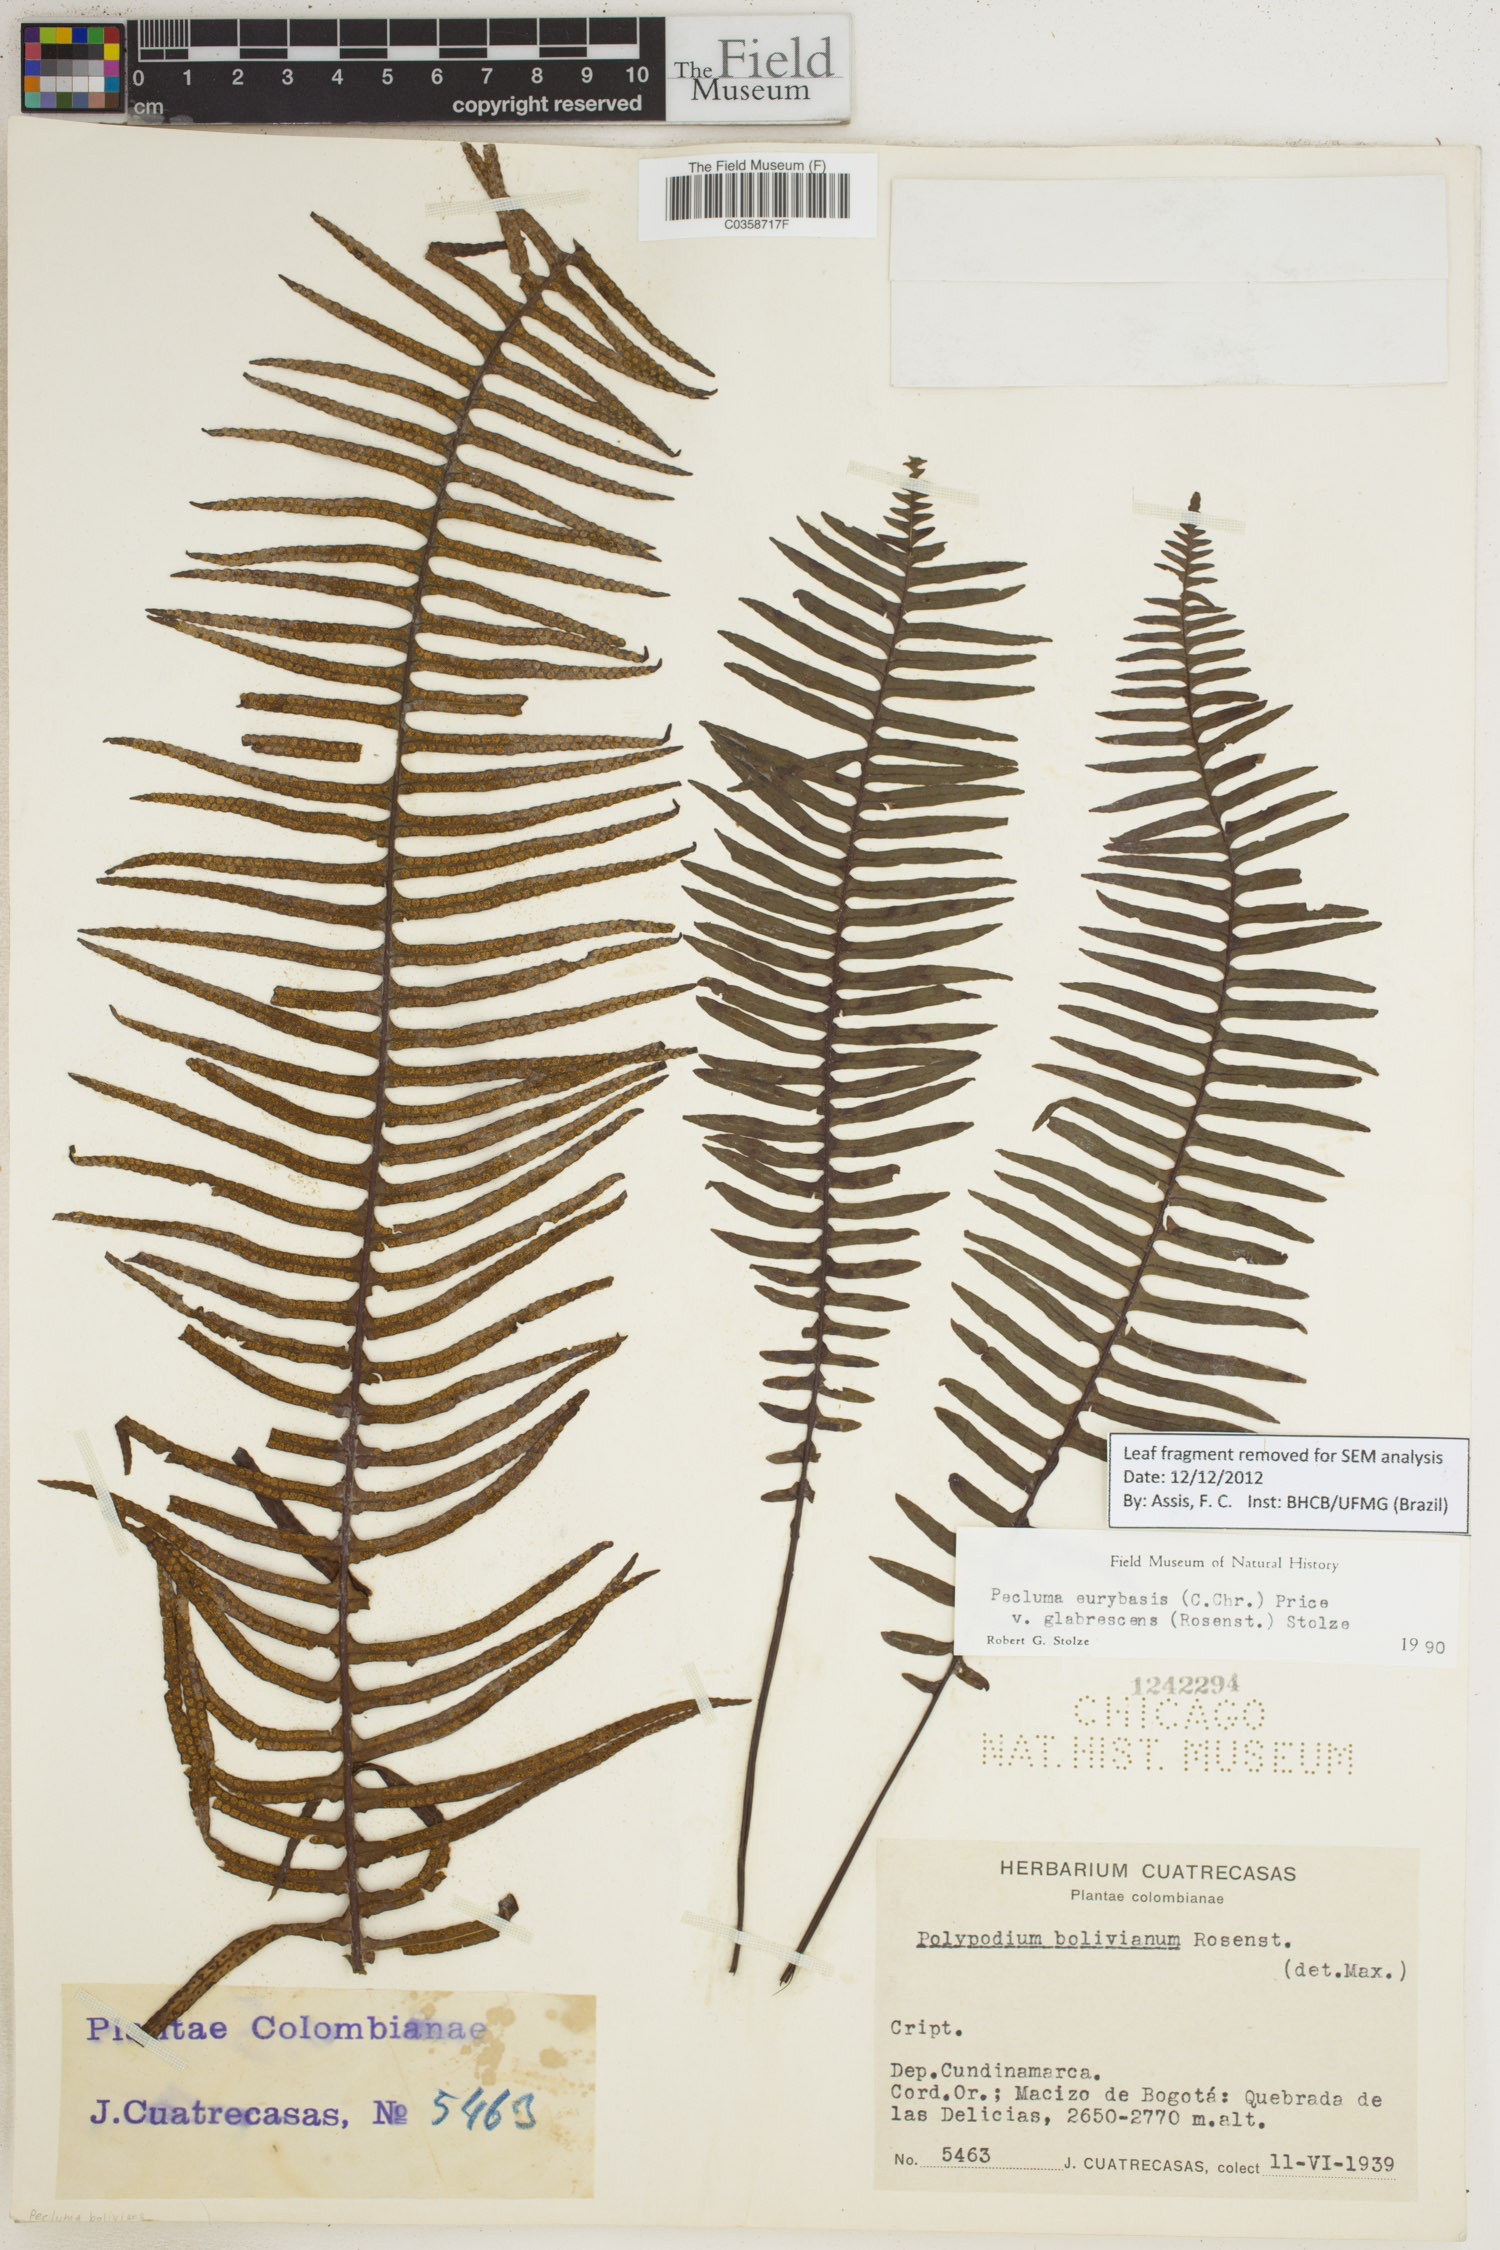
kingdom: Plantae
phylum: Tracheophyta
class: Polypodiopsida
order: Polypodiales
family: Polypodiaceae
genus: Pecluma
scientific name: Pecluma eurybasis
